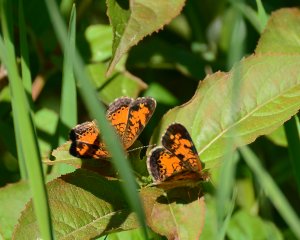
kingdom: Animalia
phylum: Arthropoda
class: Insecta
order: Lepidoptera
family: Nymphalidae
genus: Phyciodes
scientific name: Phyciodes tharos
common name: Northern Crescent
